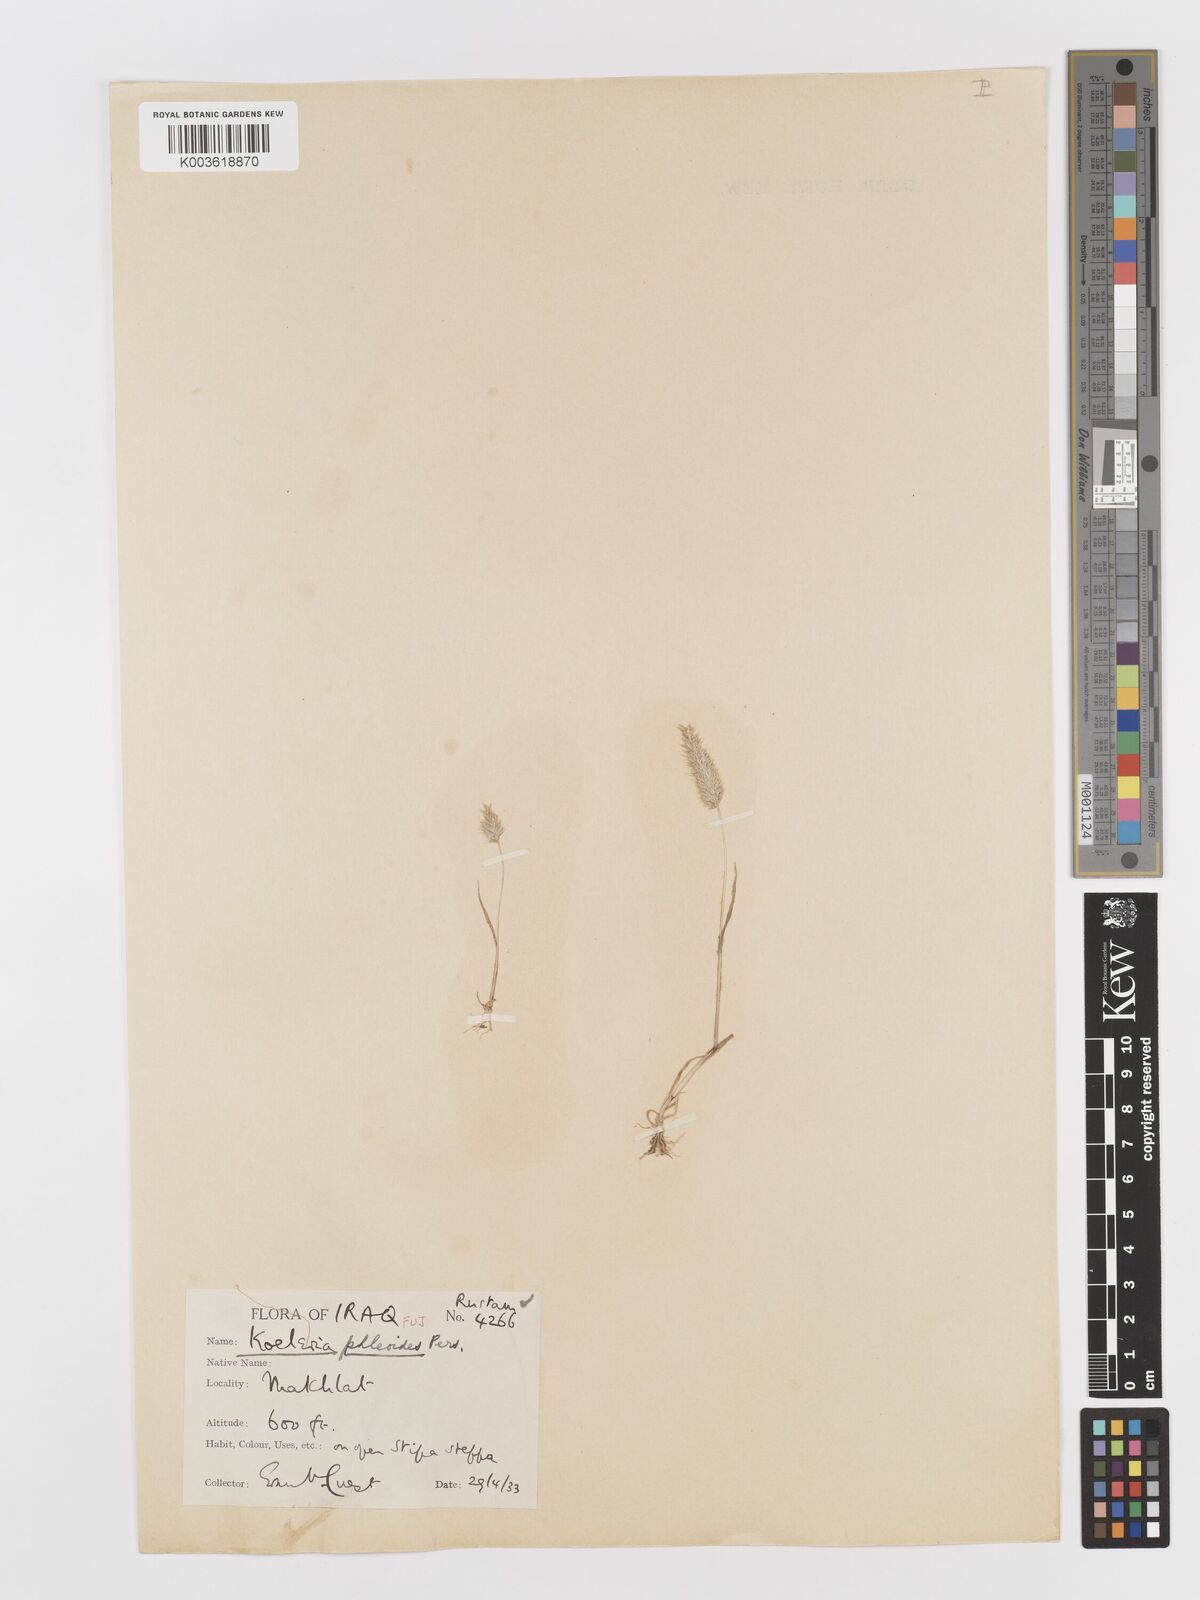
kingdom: Plantae
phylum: Tracheophyta
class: Liliopsida
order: Poales
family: Poaceae
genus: Rostraria
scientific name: Rostraria cristata
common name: Mediterranean hair-grass
